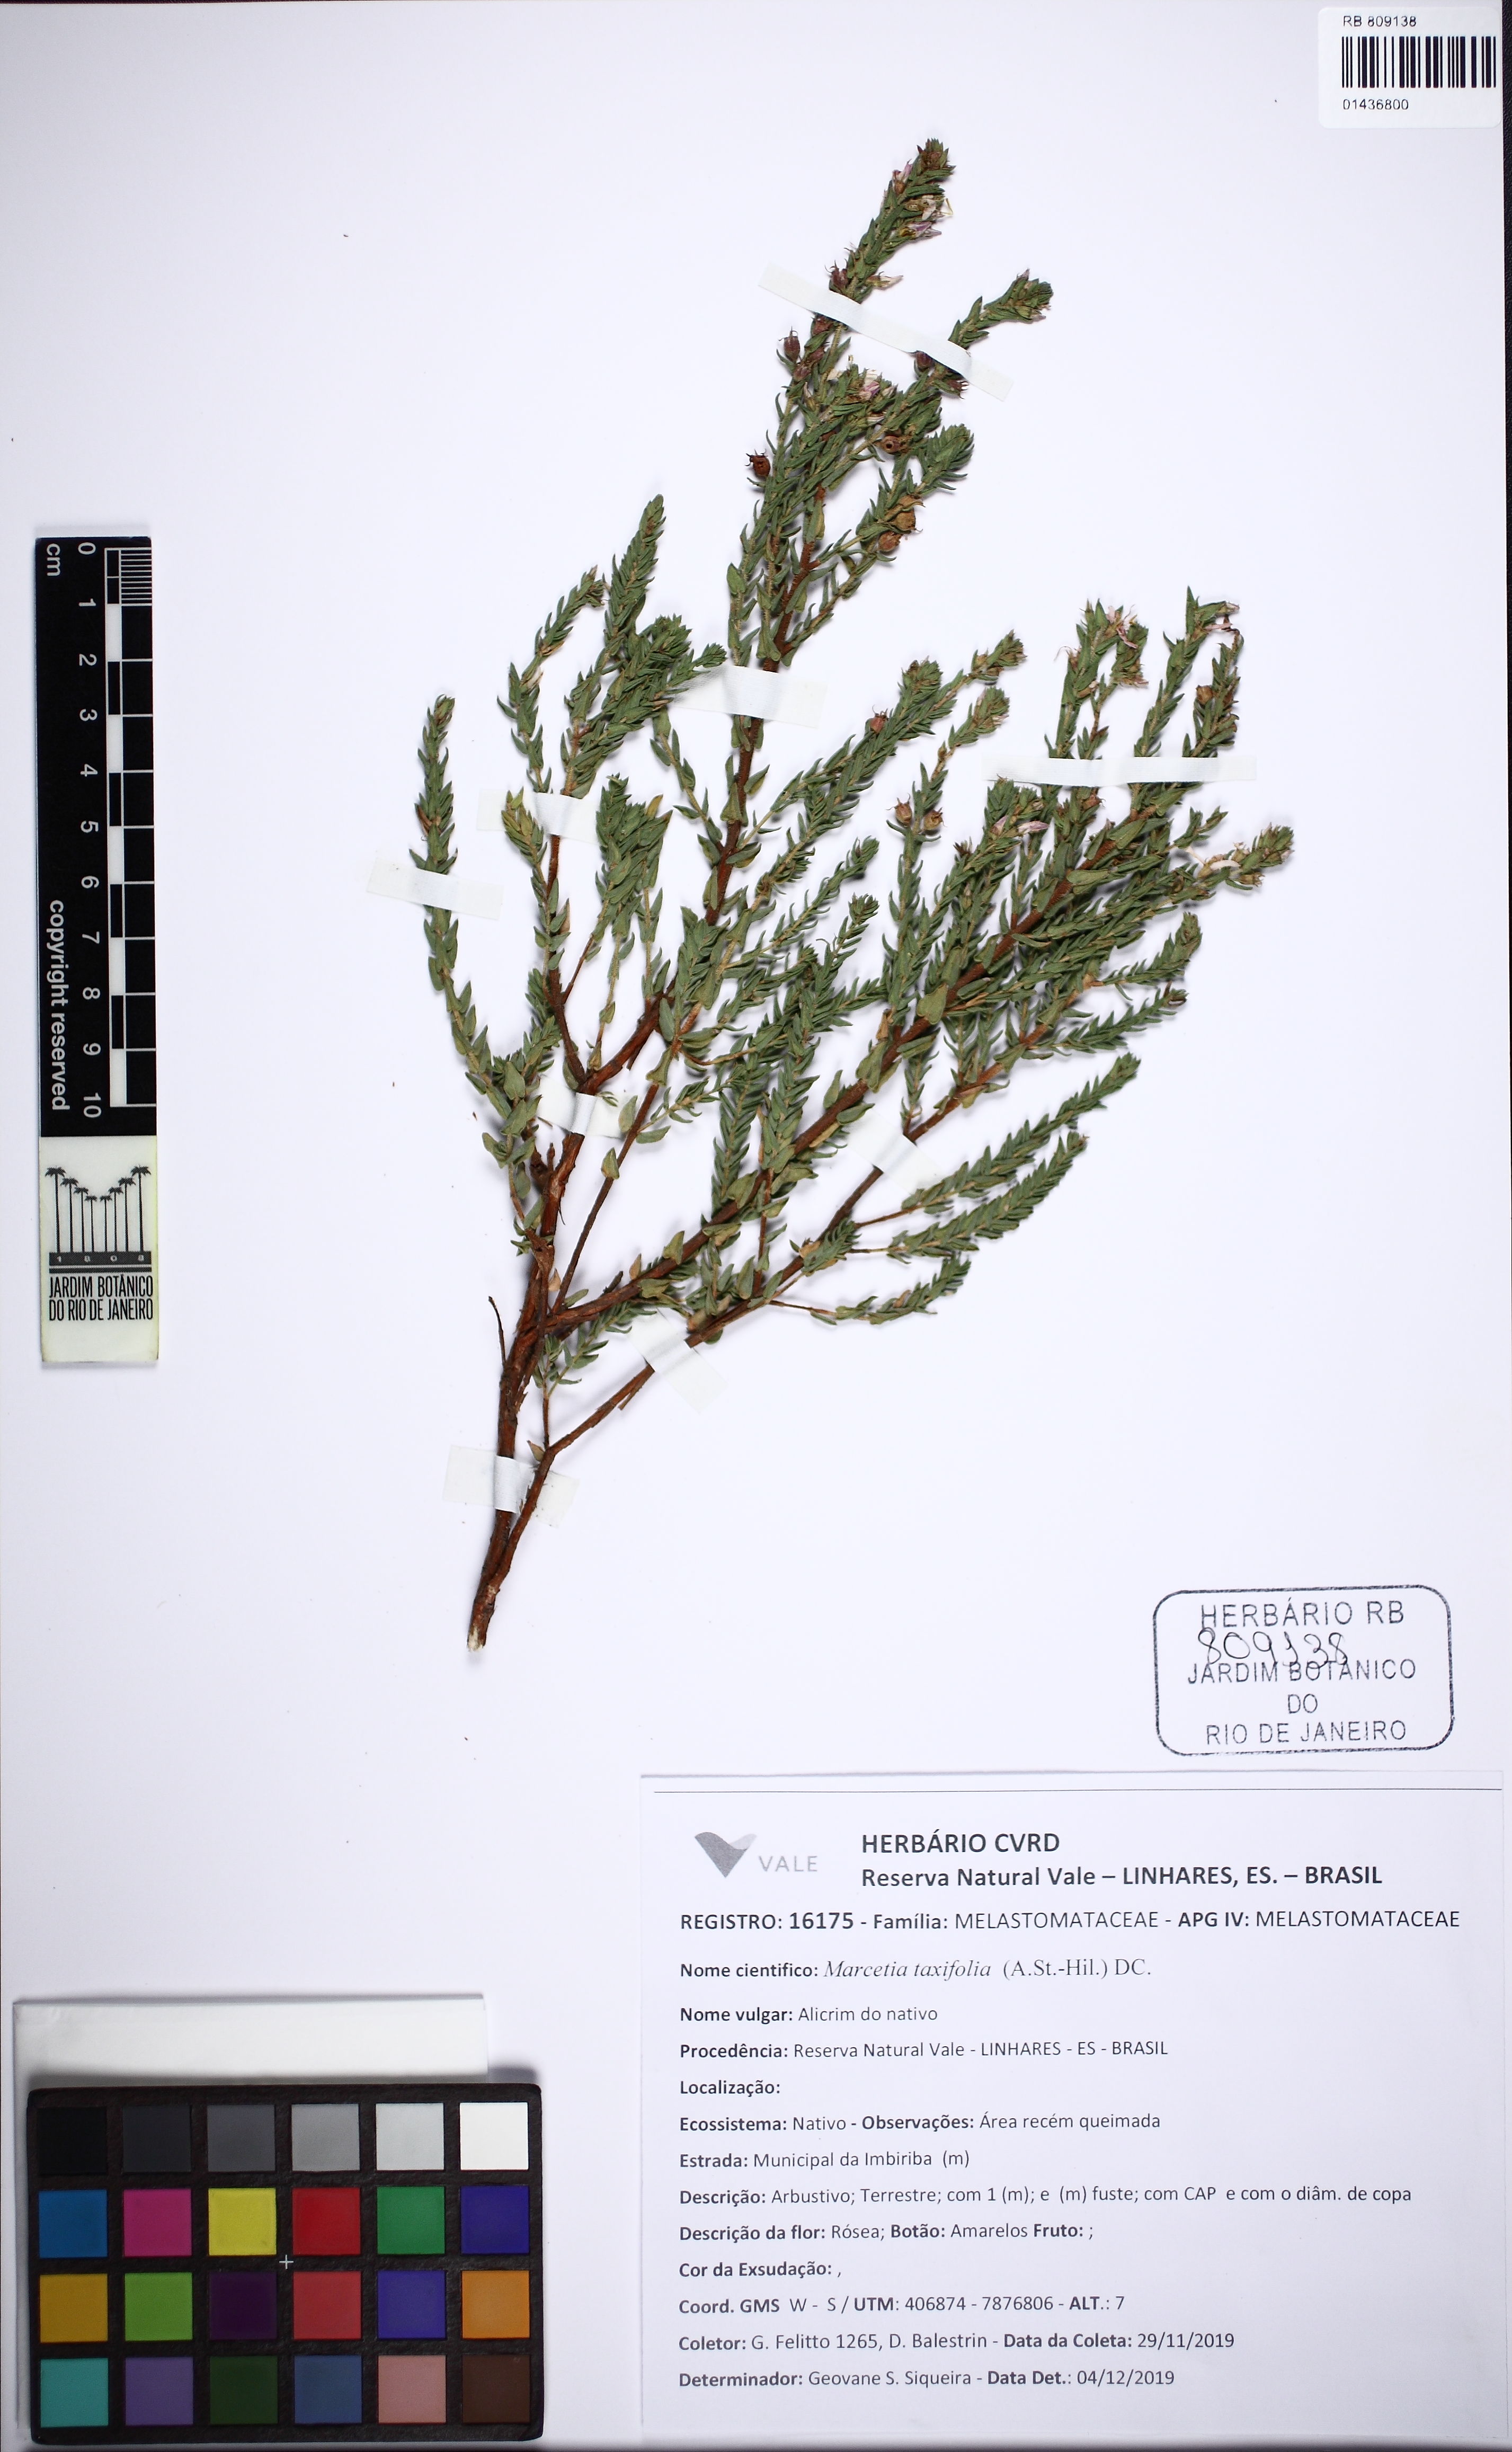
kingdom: Plantae
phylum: Tracheophyta
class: Magnoliopsida
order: Myrtales
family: Melastomataceae
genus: Marcetia
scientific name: Marcetia taxifolia
